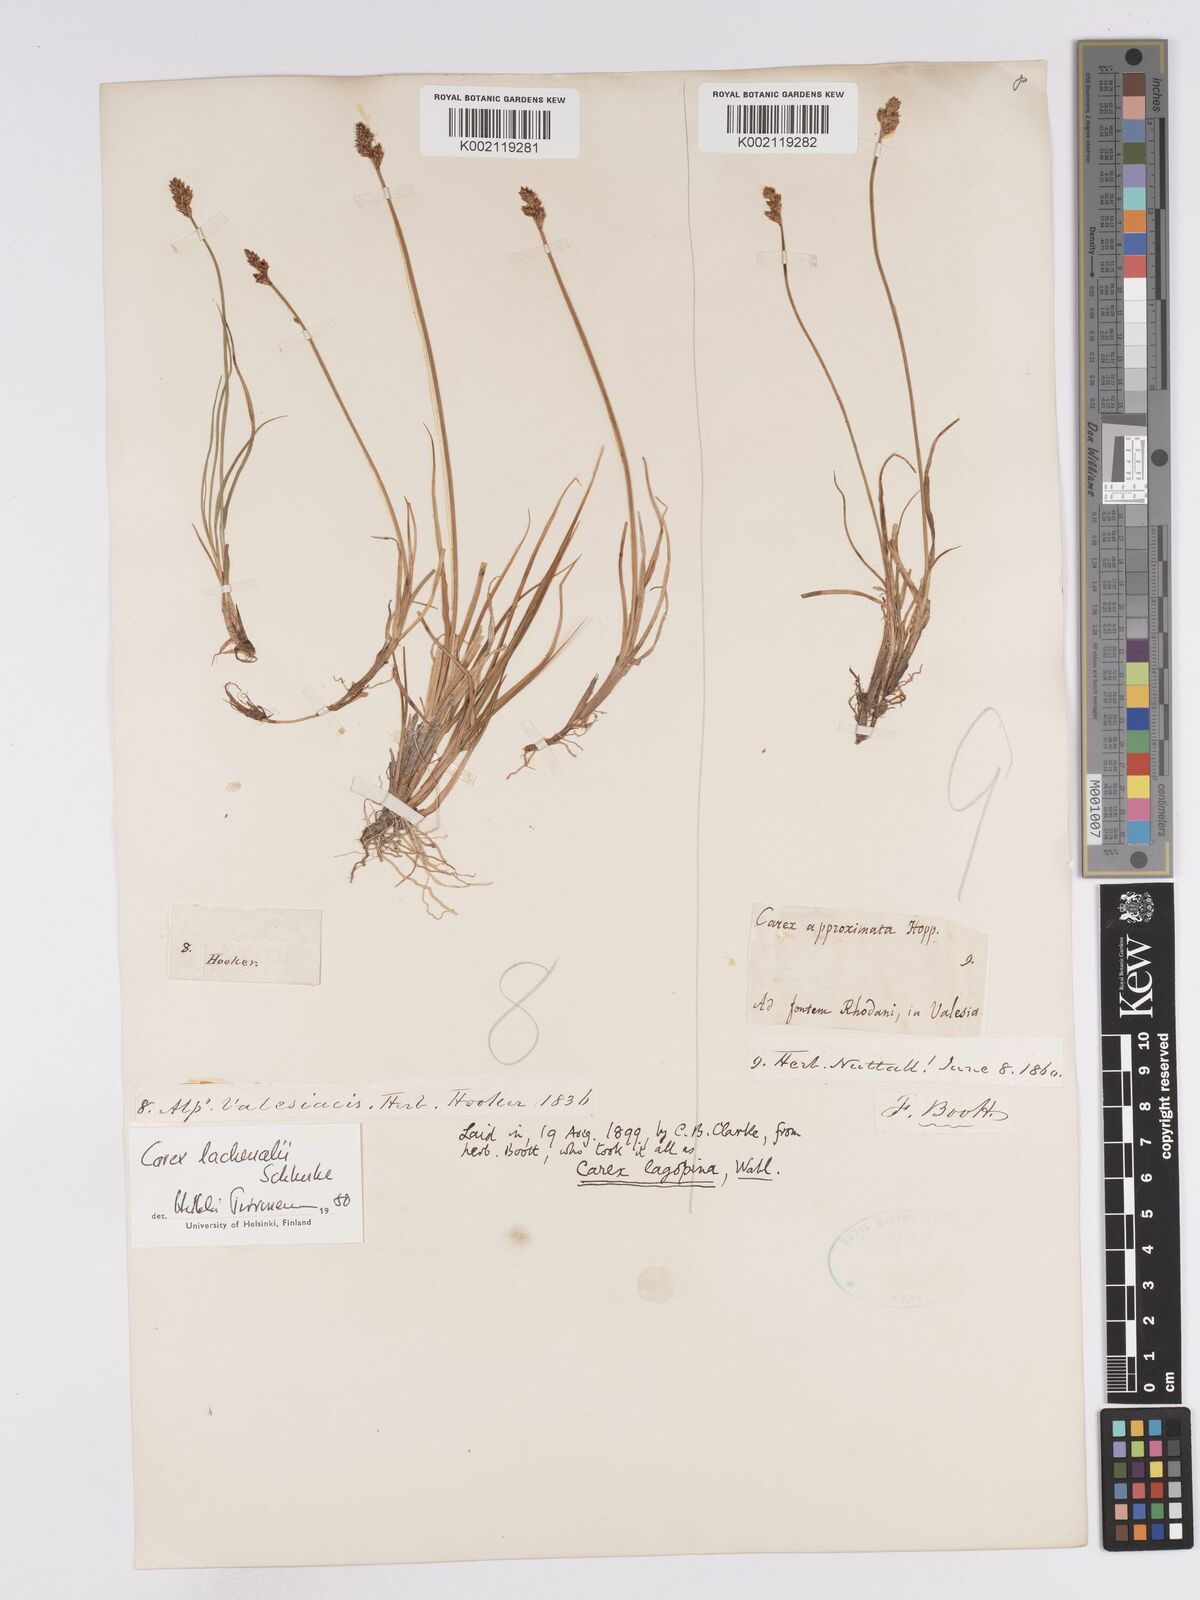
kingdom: Plantae
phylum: Tracheophyta
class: Liliopsida
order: Poales
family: Cyperaceae
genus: Carex
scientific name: Carex lachenalii
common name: Hare's-foot sedge
